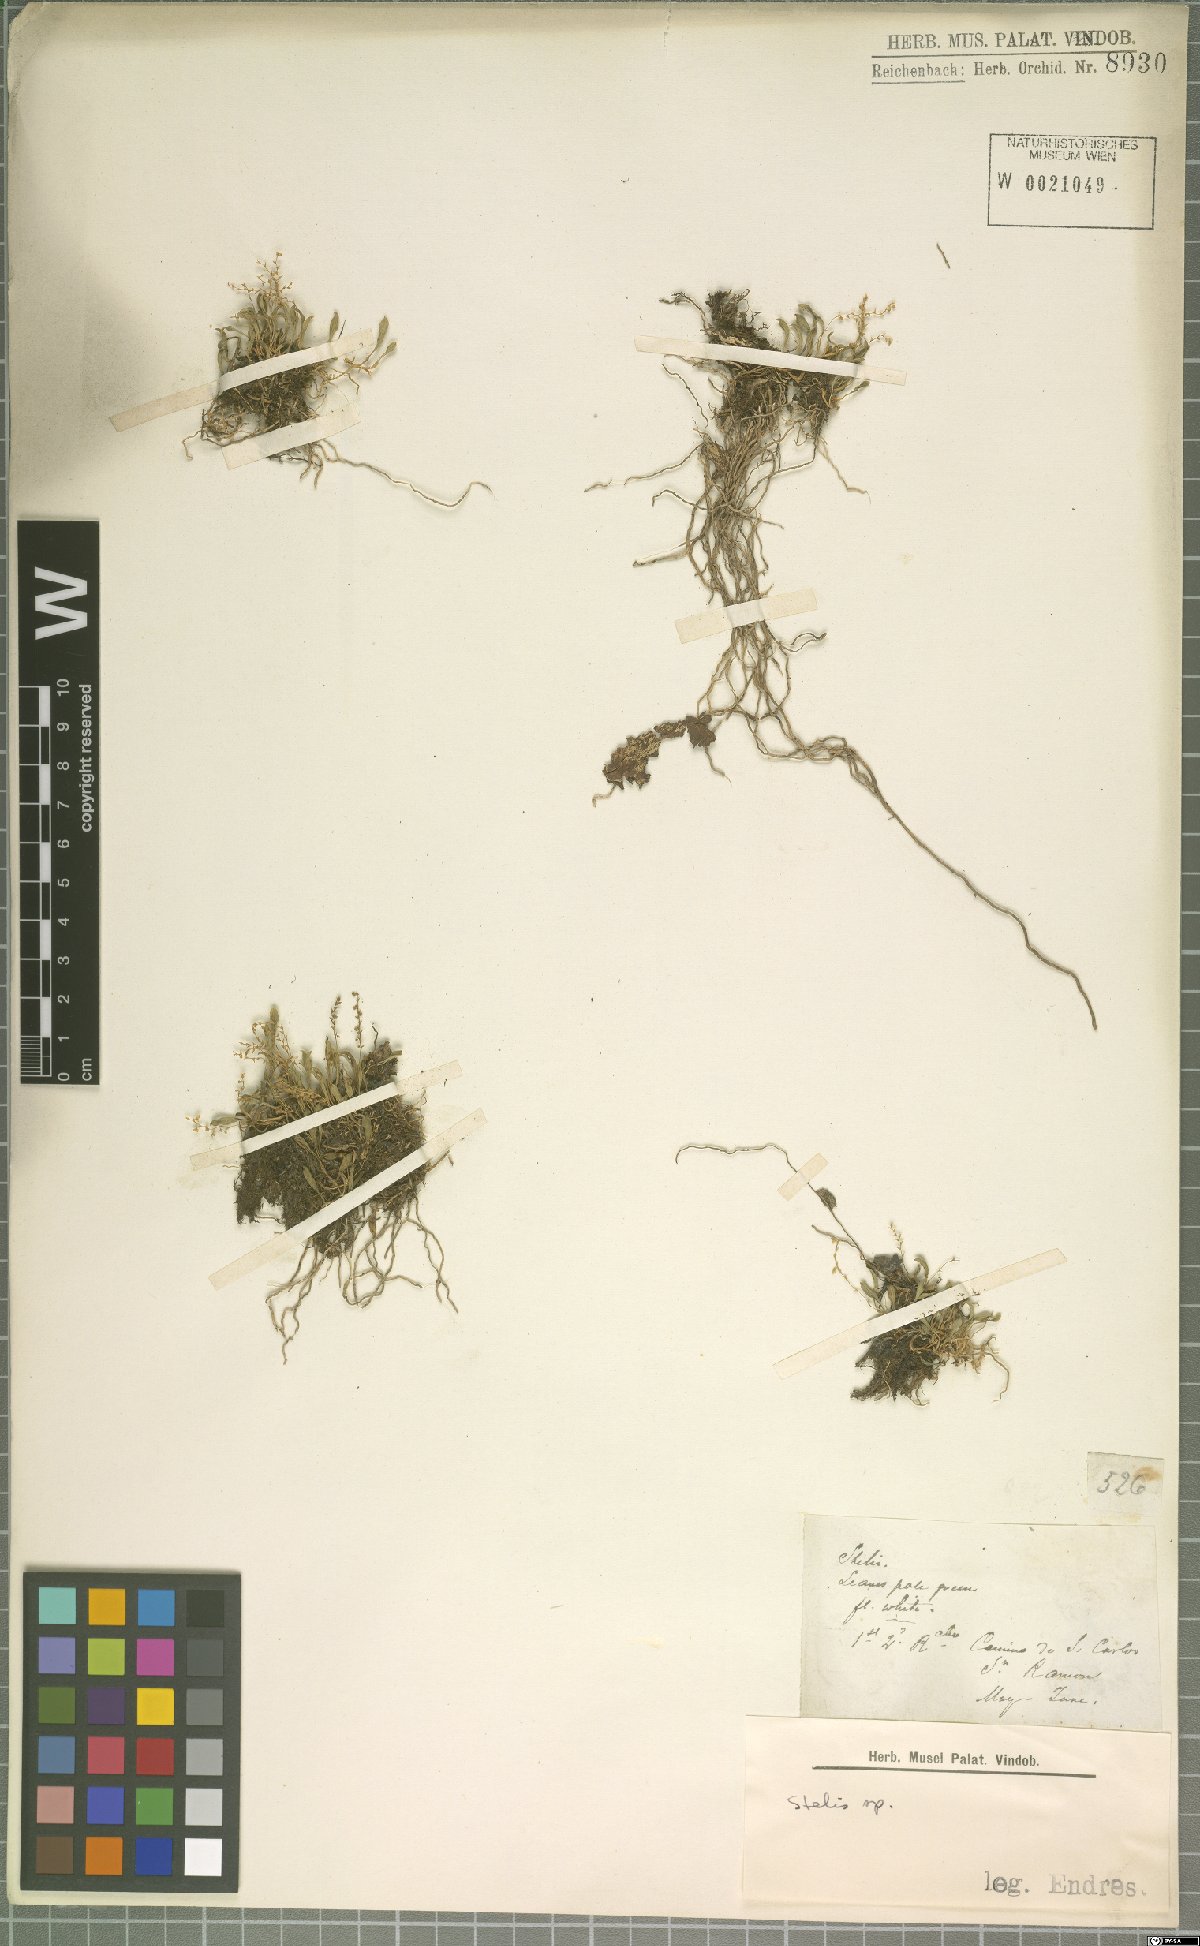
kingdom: Plantae
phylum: Tracheophyta
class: Liliopsida
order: Asparagales
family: Orchidaceae
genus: Stelis
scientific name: Stelis
